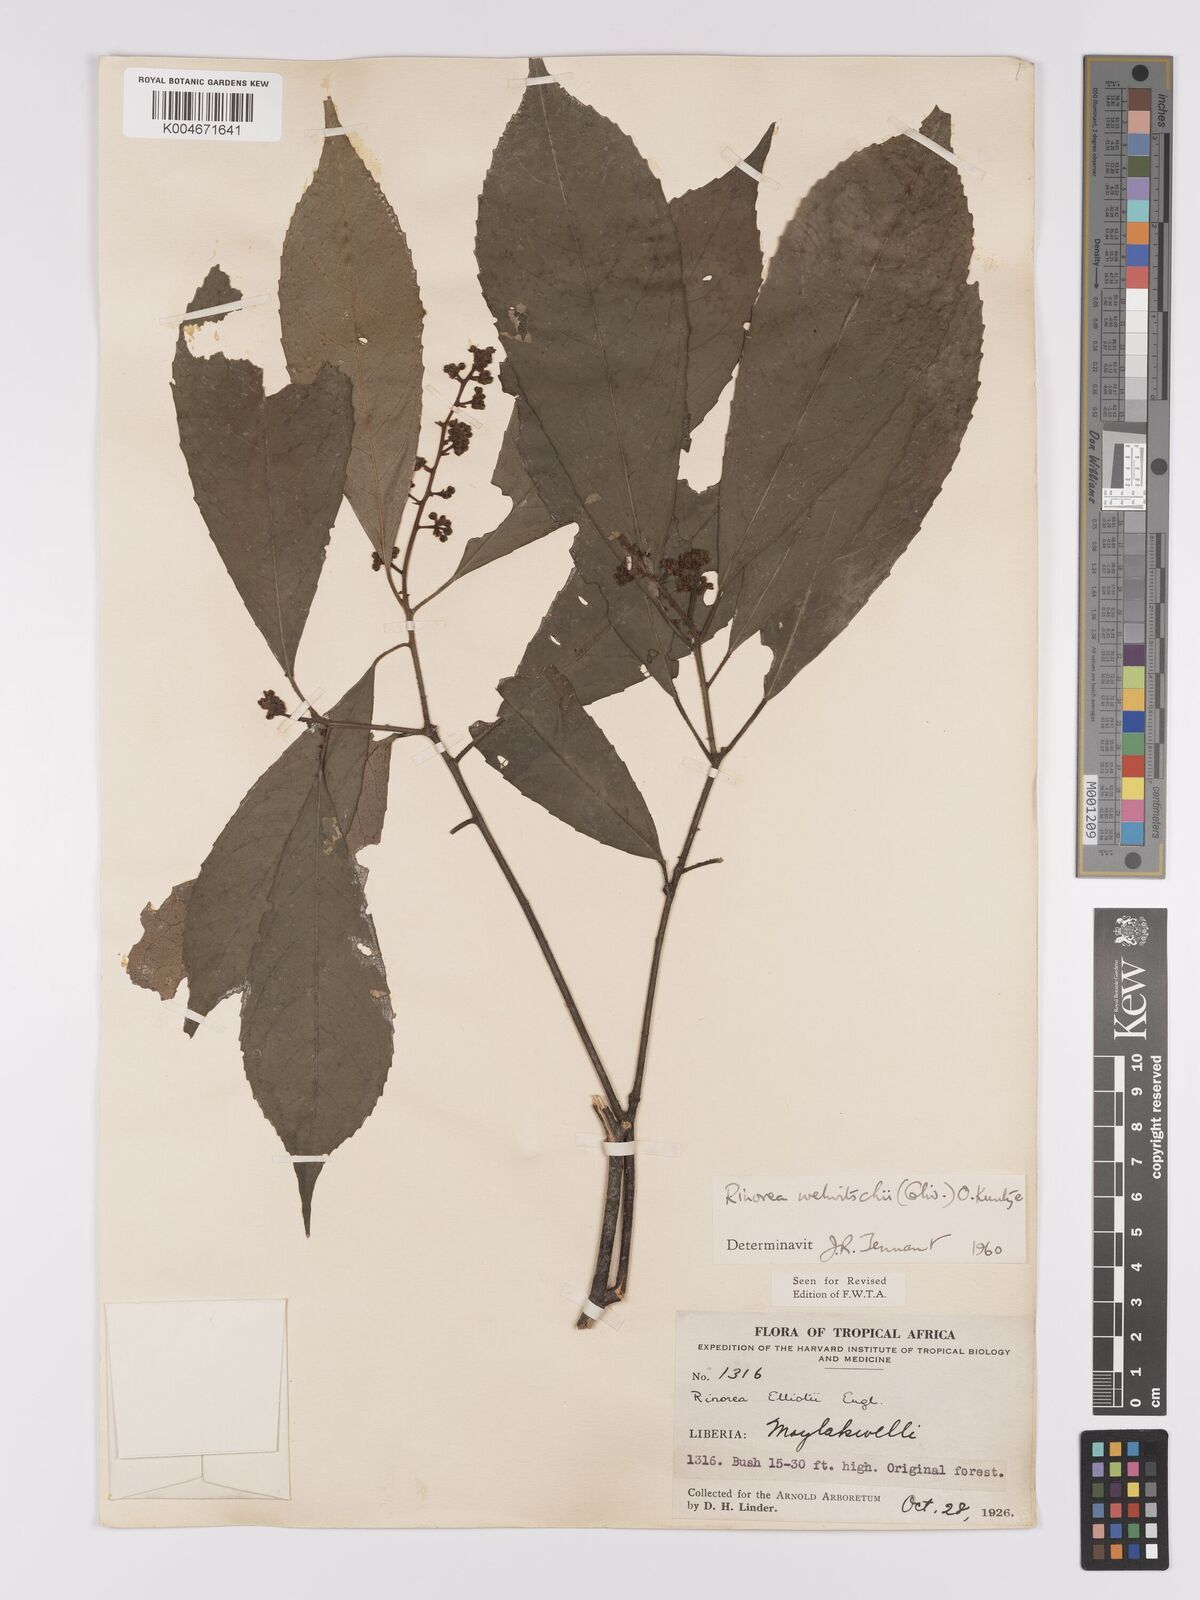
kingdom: Plantae
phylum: Tracheophyta
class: Magnoliopsida
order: Malpighiales
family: Violaceae
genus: Rinorea
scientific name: Rinorea welwitschii
